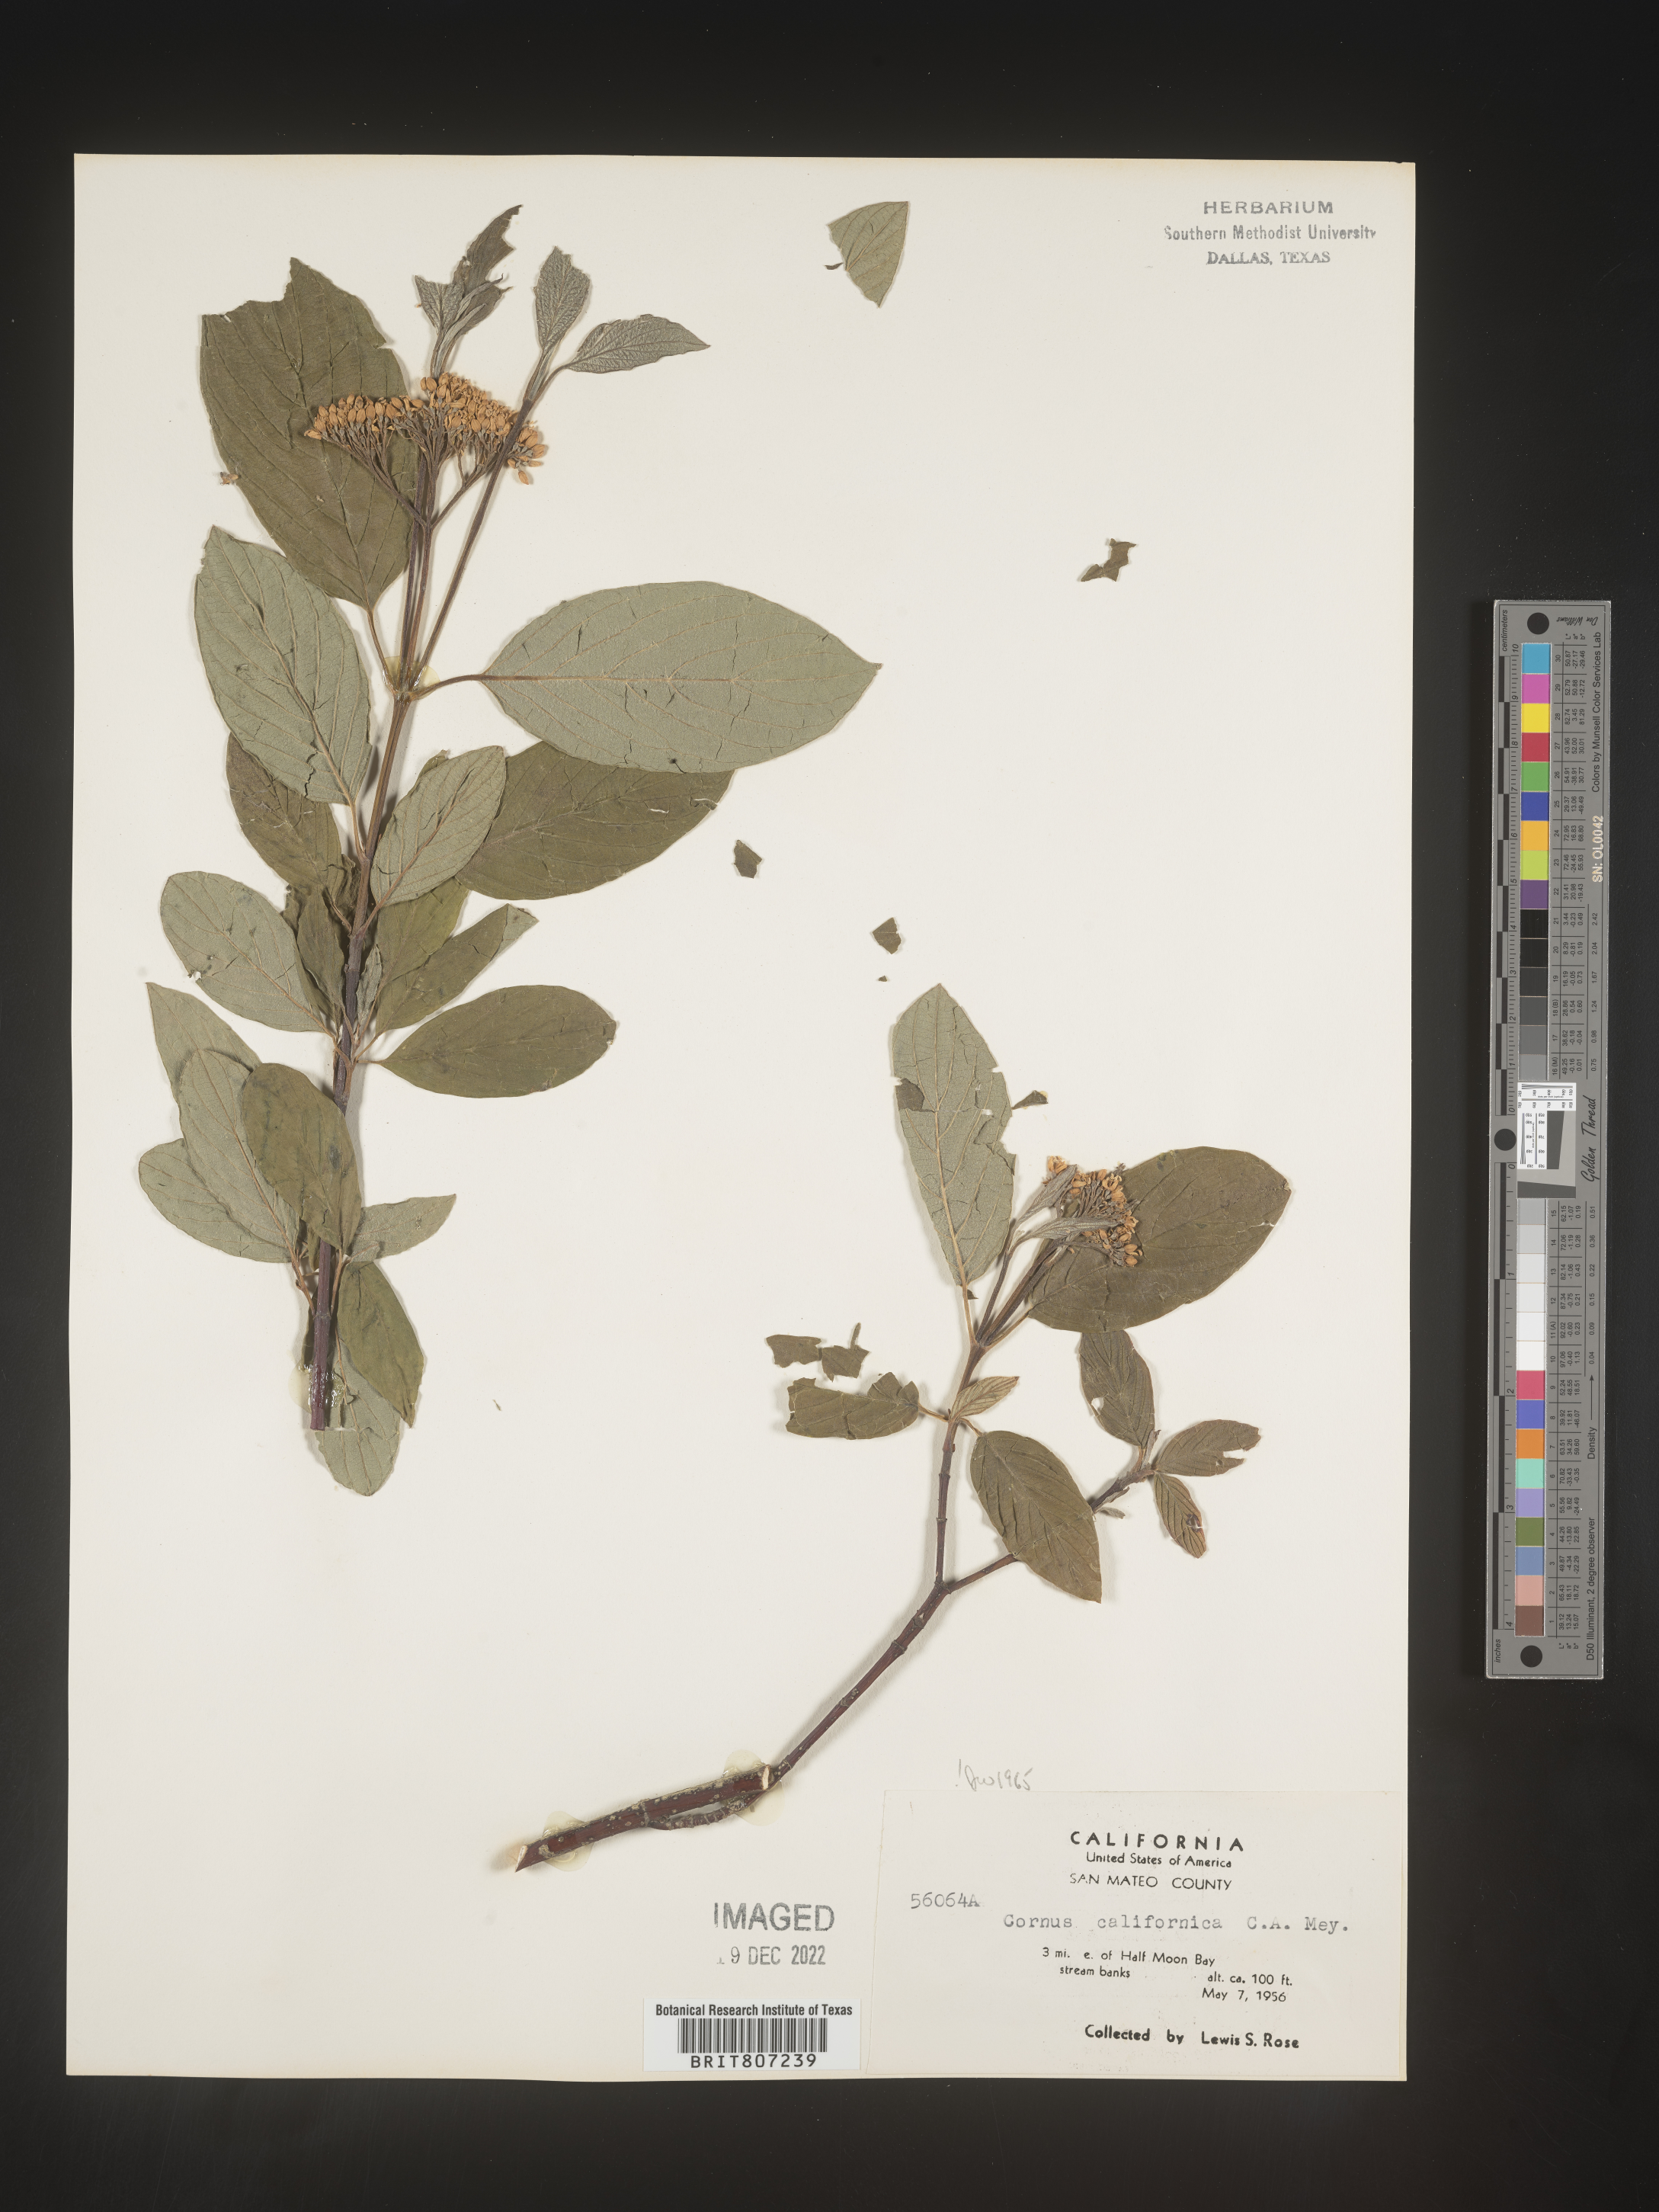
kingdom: Plantae
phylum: Tracheophyta
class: Magnoliopsida
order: Cornales
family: Cornaceae
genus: Cornus
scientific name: Cornus
